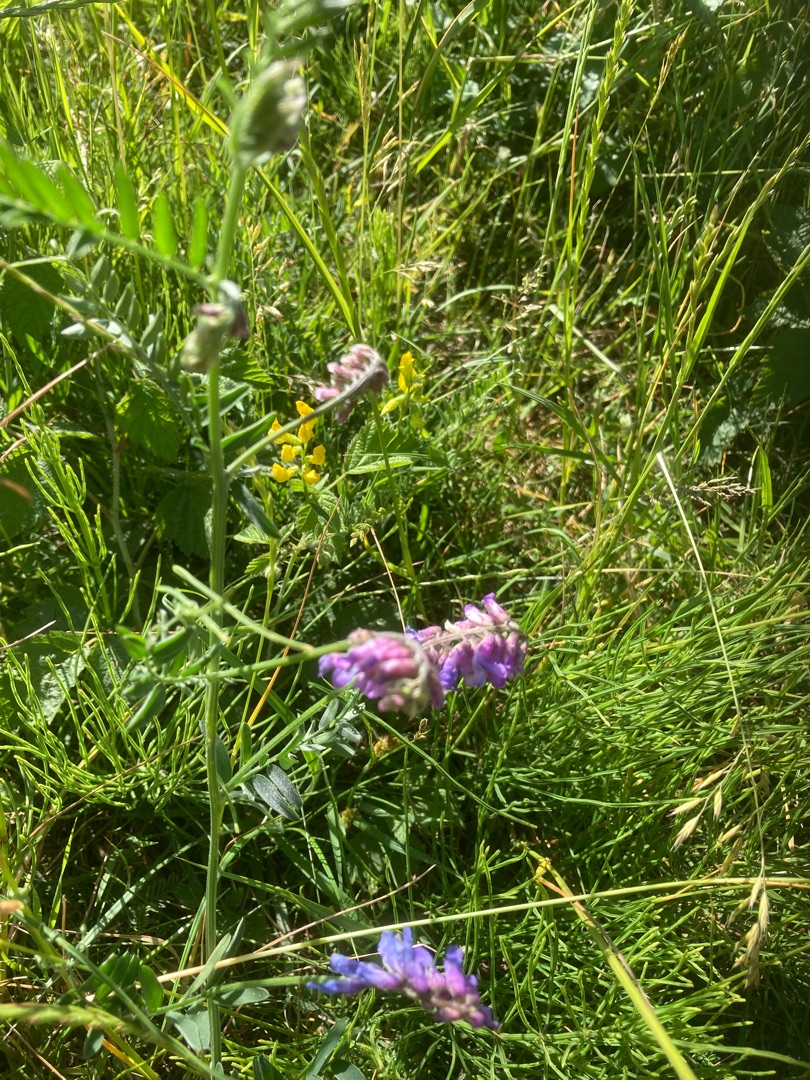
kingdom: Plantae
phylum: Tracheophyta
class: Magnoliopsida
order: Fabales
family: Fabaceae
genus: Vicia
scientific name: Vicia cracca
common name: Muse-vikke
